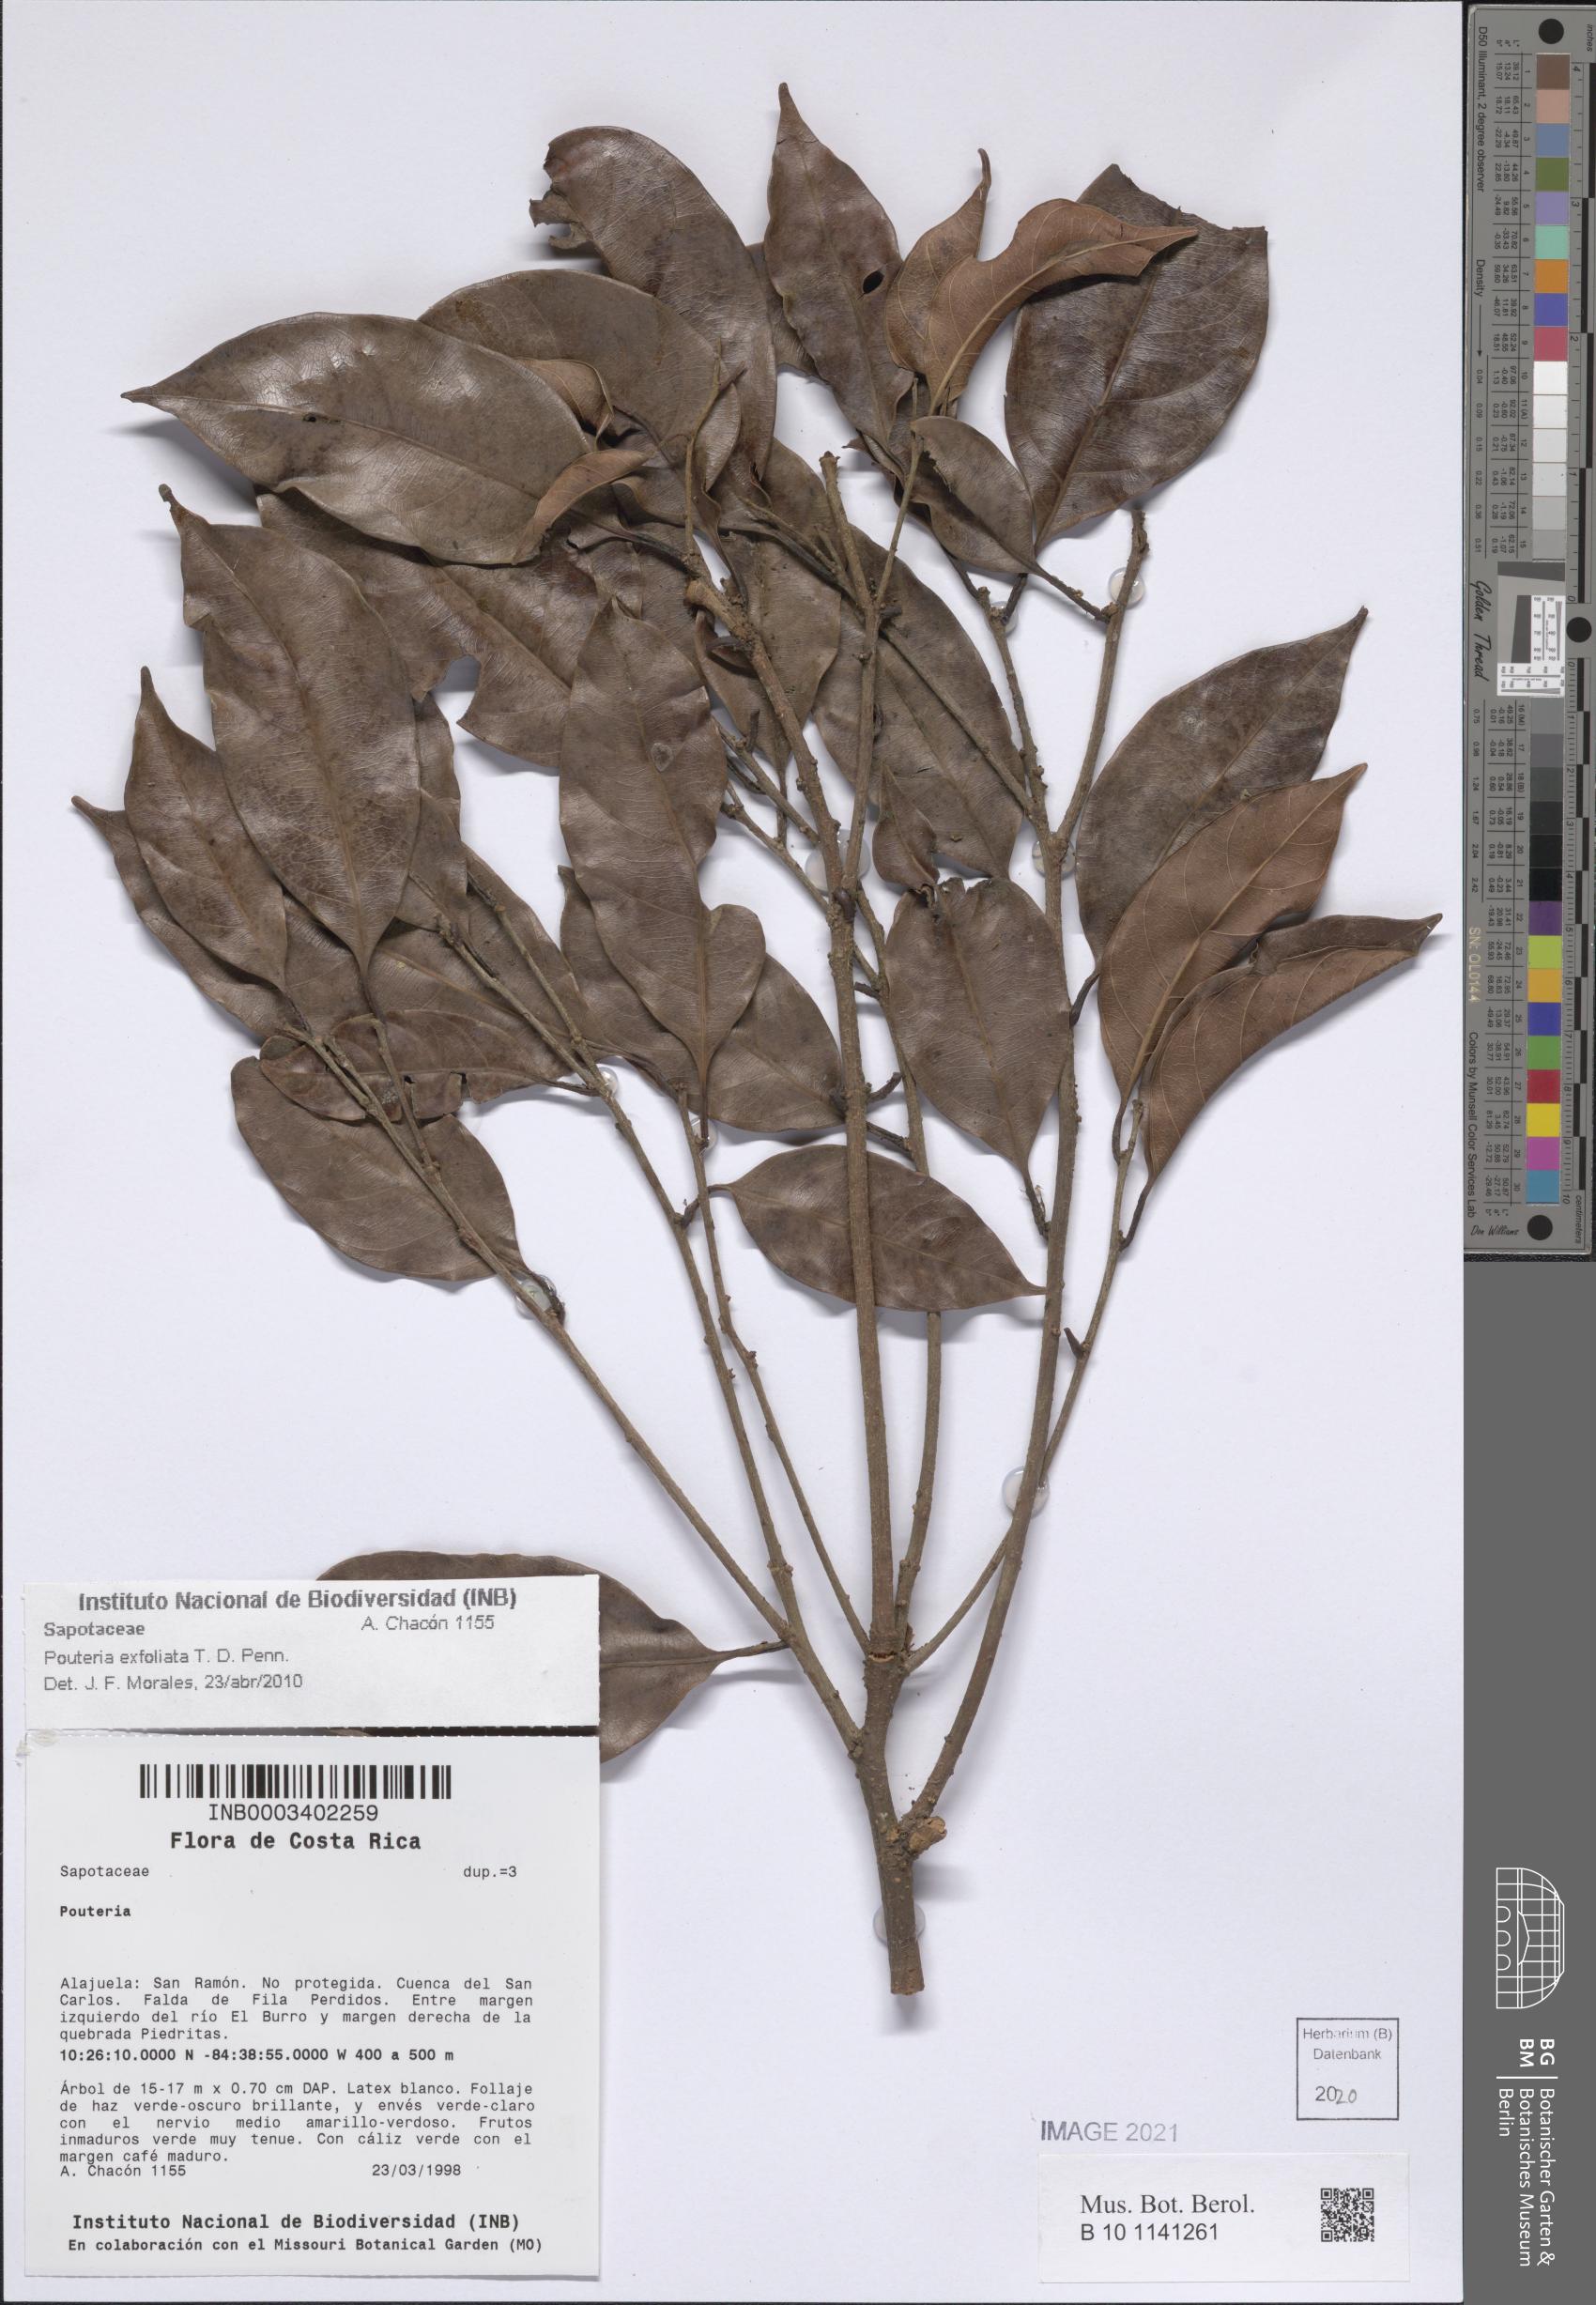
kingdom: Plantae
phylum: Tracheophyta
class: Magnoliopsida
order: Ericales
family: Sapotaceae
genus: Pouteria
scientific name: Pouteria exfoliata
